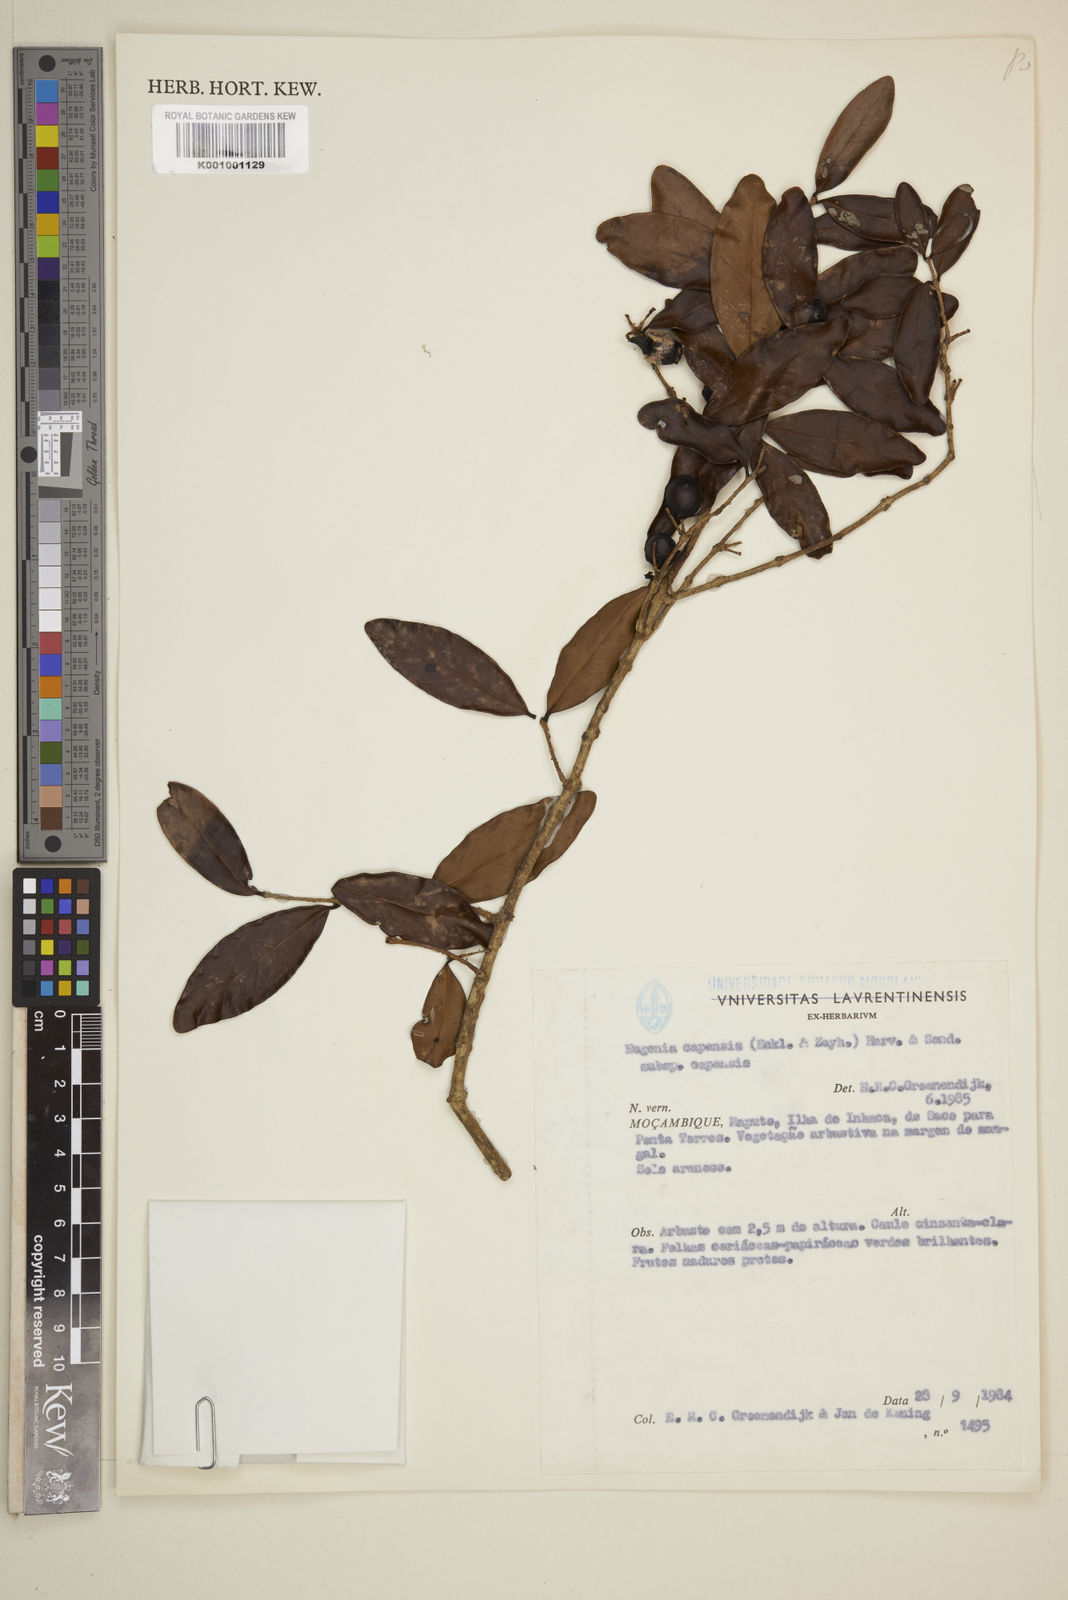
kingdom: Plantae
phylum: Tracheophyta
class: Magnoliopsida
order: Myrtales
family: Myrtaceae
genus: Eugenia
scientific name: Eugenia capensis
